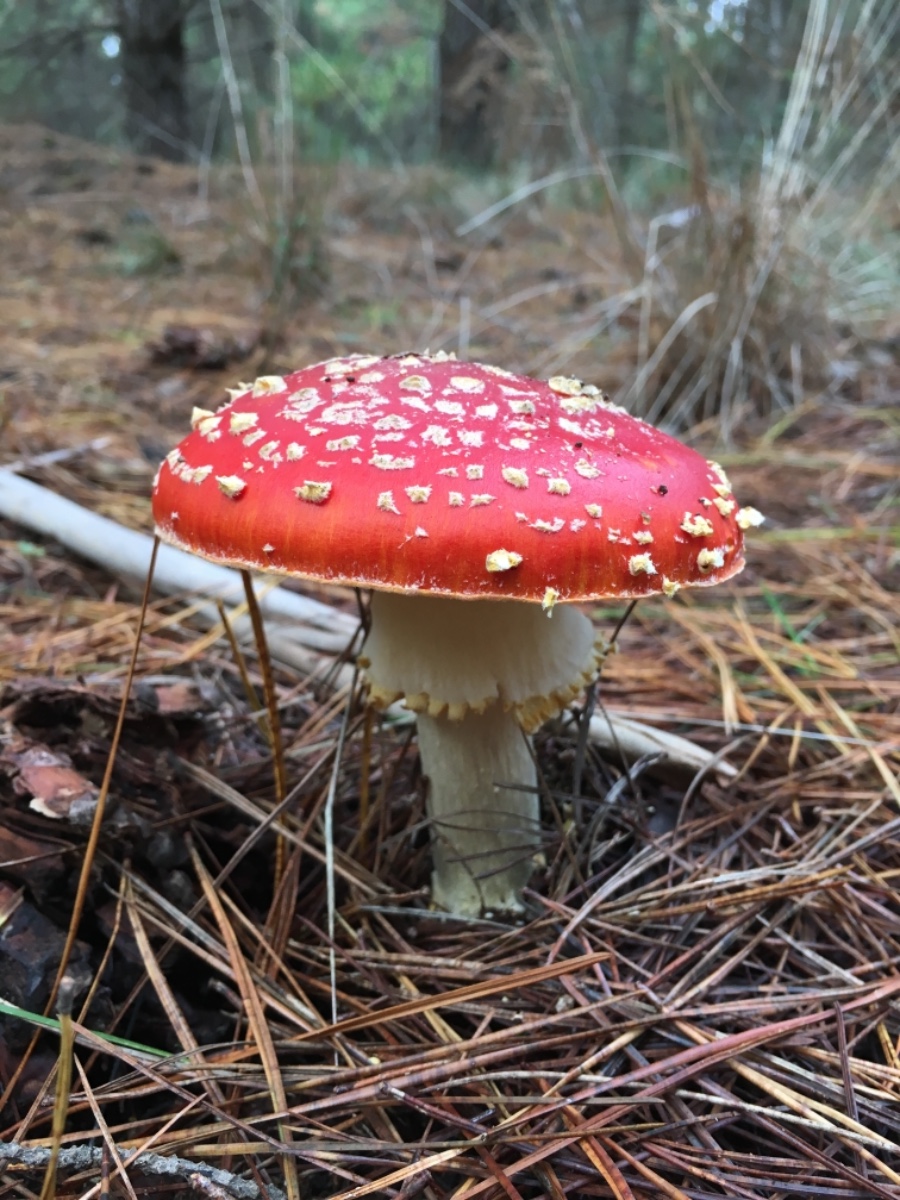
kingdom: Fungi
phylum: Basidiomycota
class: Agaricomycetes
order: Agaricales
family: Amanitaceae
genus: Amanita
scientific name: Amanita muscaria
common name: rød fluesvamp
